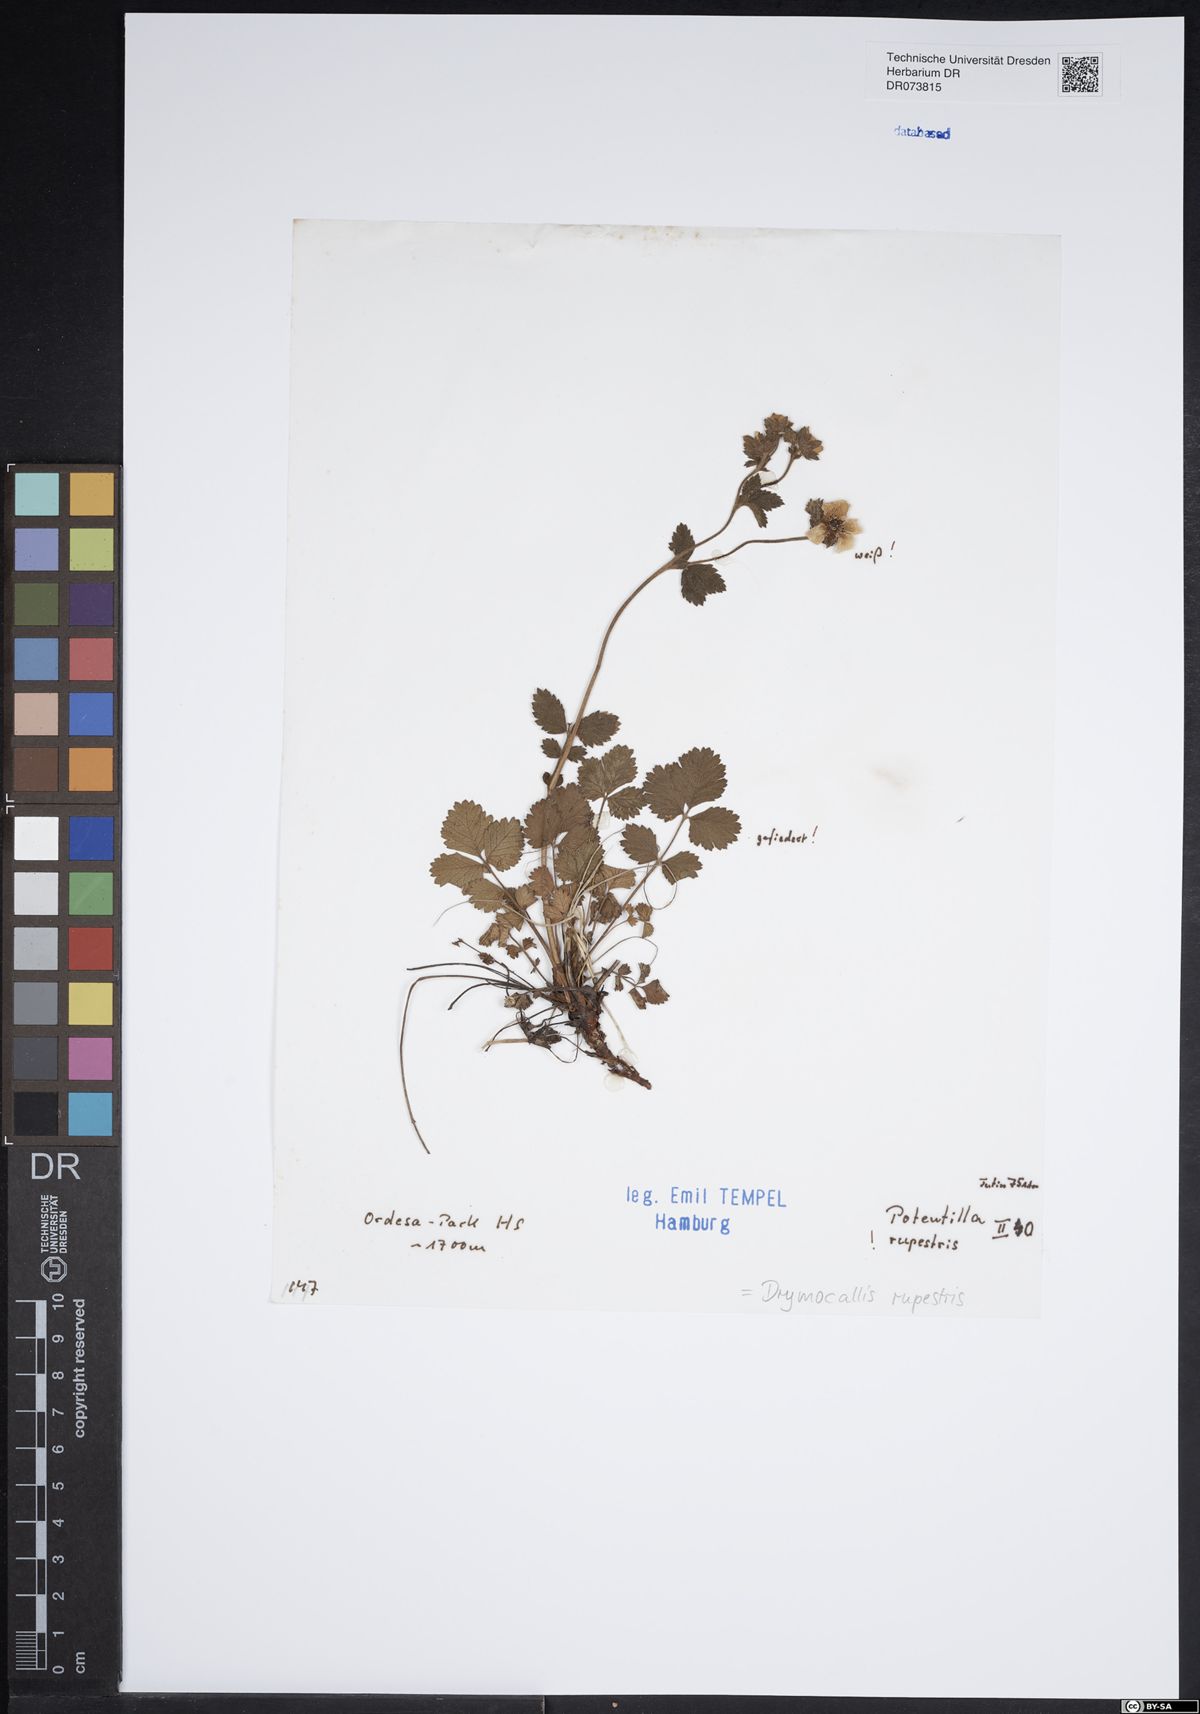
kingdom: Plantae
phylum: Tracheophyta
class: Magnoliopsida
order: Rosales
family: Rosaceae
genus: Drymocallis
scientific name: Drymocallis rupestris
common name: Rock cinquefoil
